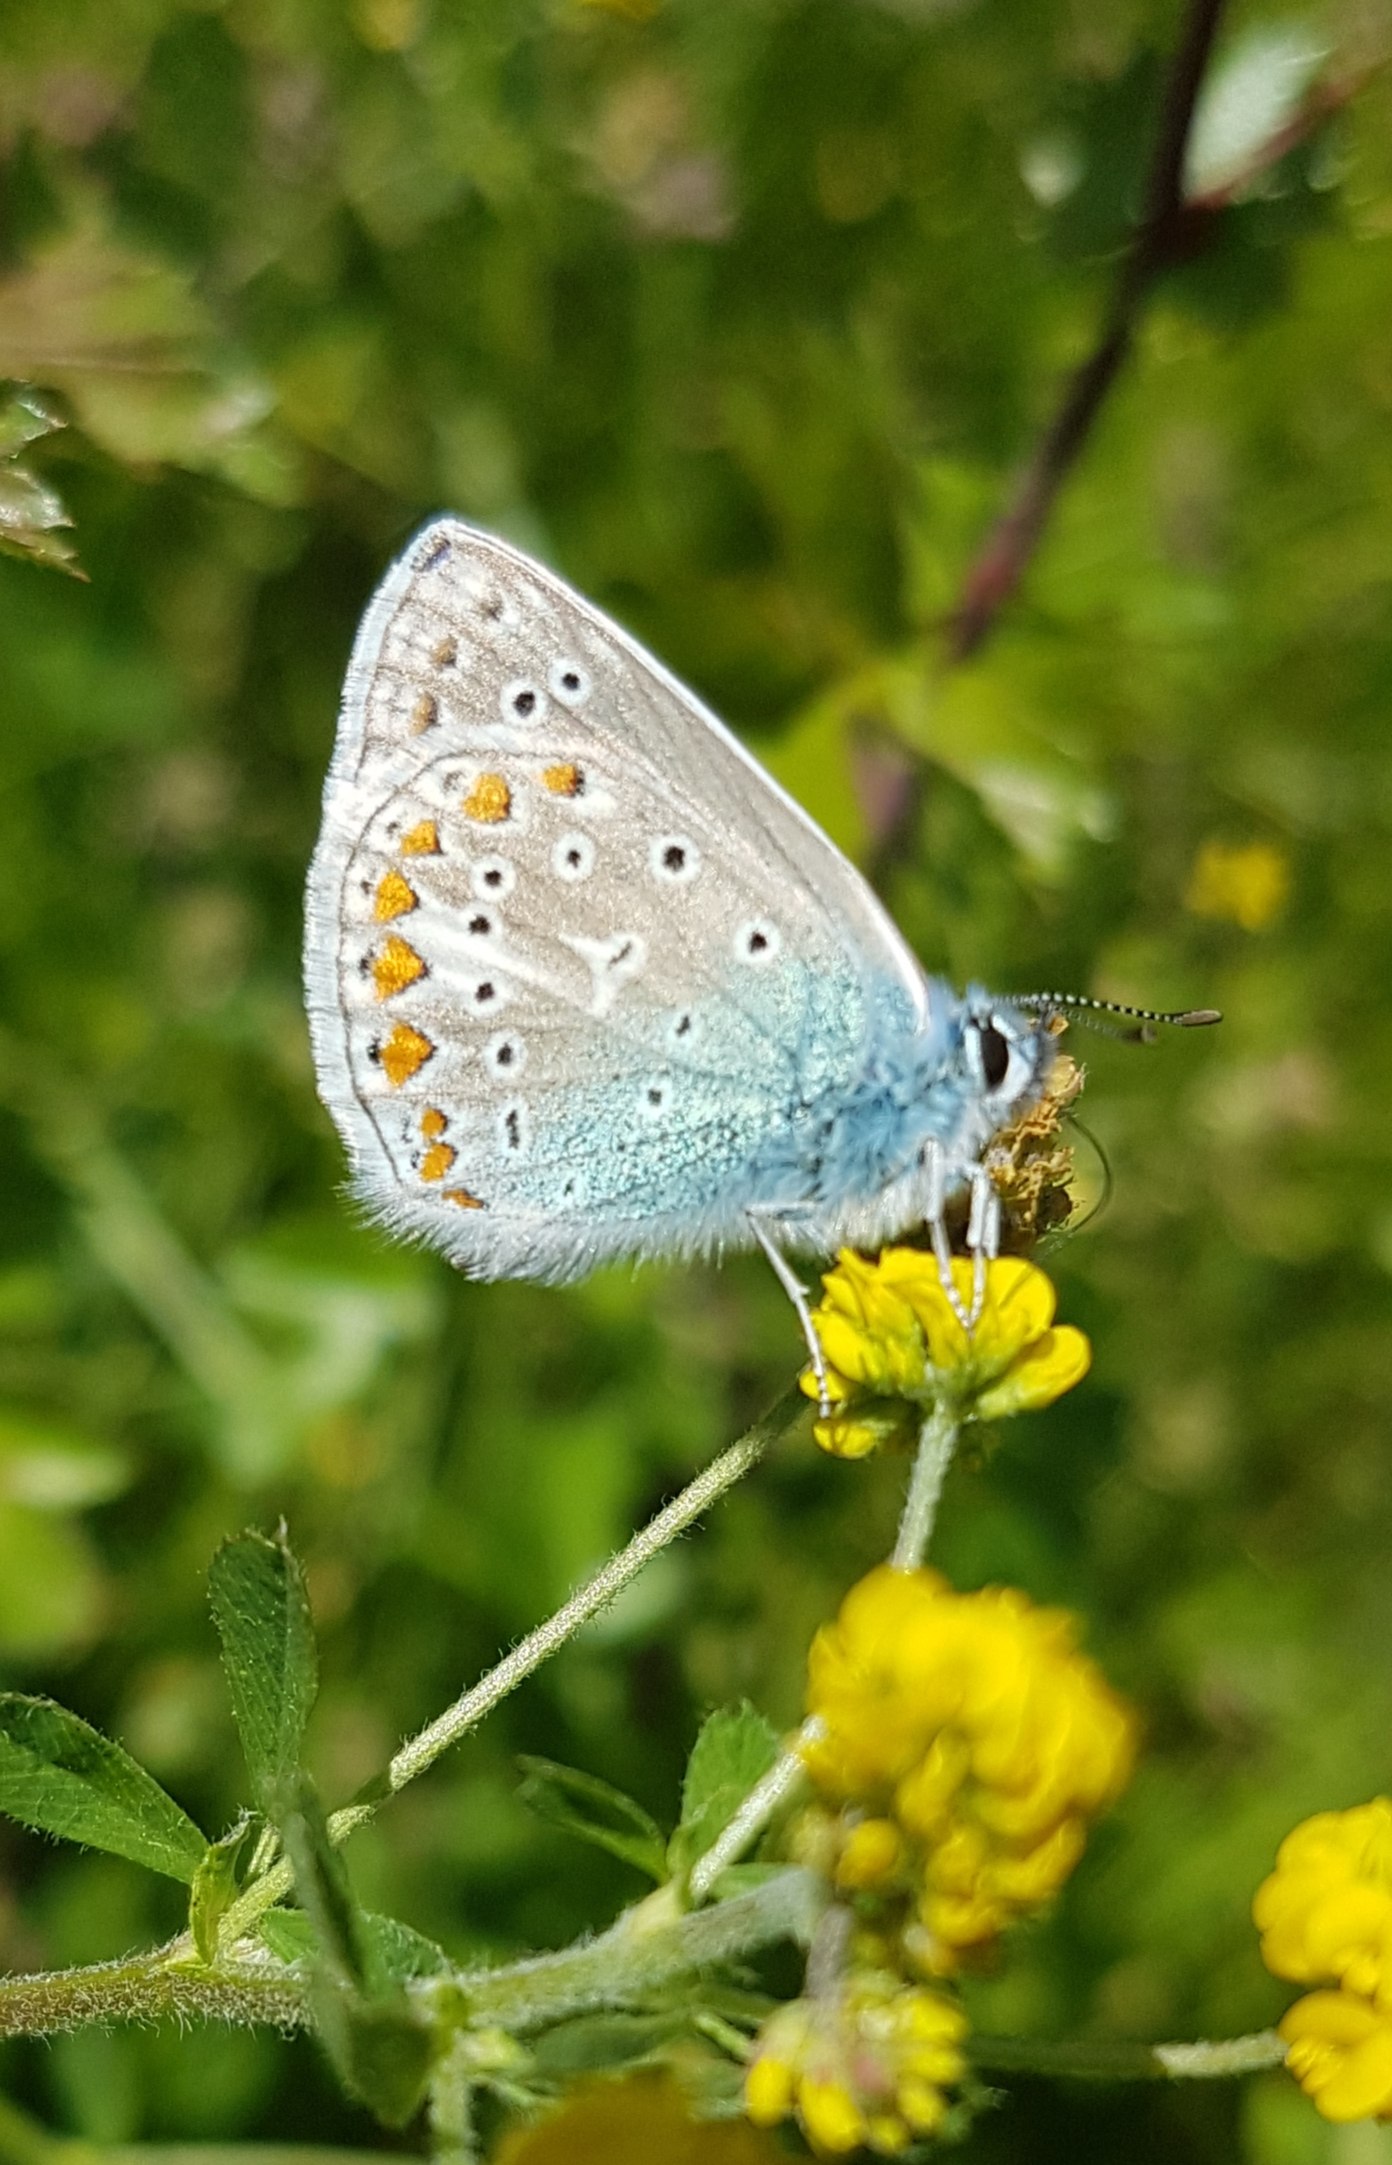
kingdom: Animalia
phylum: Arthropoda
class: Insecta
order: Lepidoptera
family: Lycaenidae
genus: Polyommatus
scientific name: Polyommatus icarus
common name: Almindelig blåfugl
